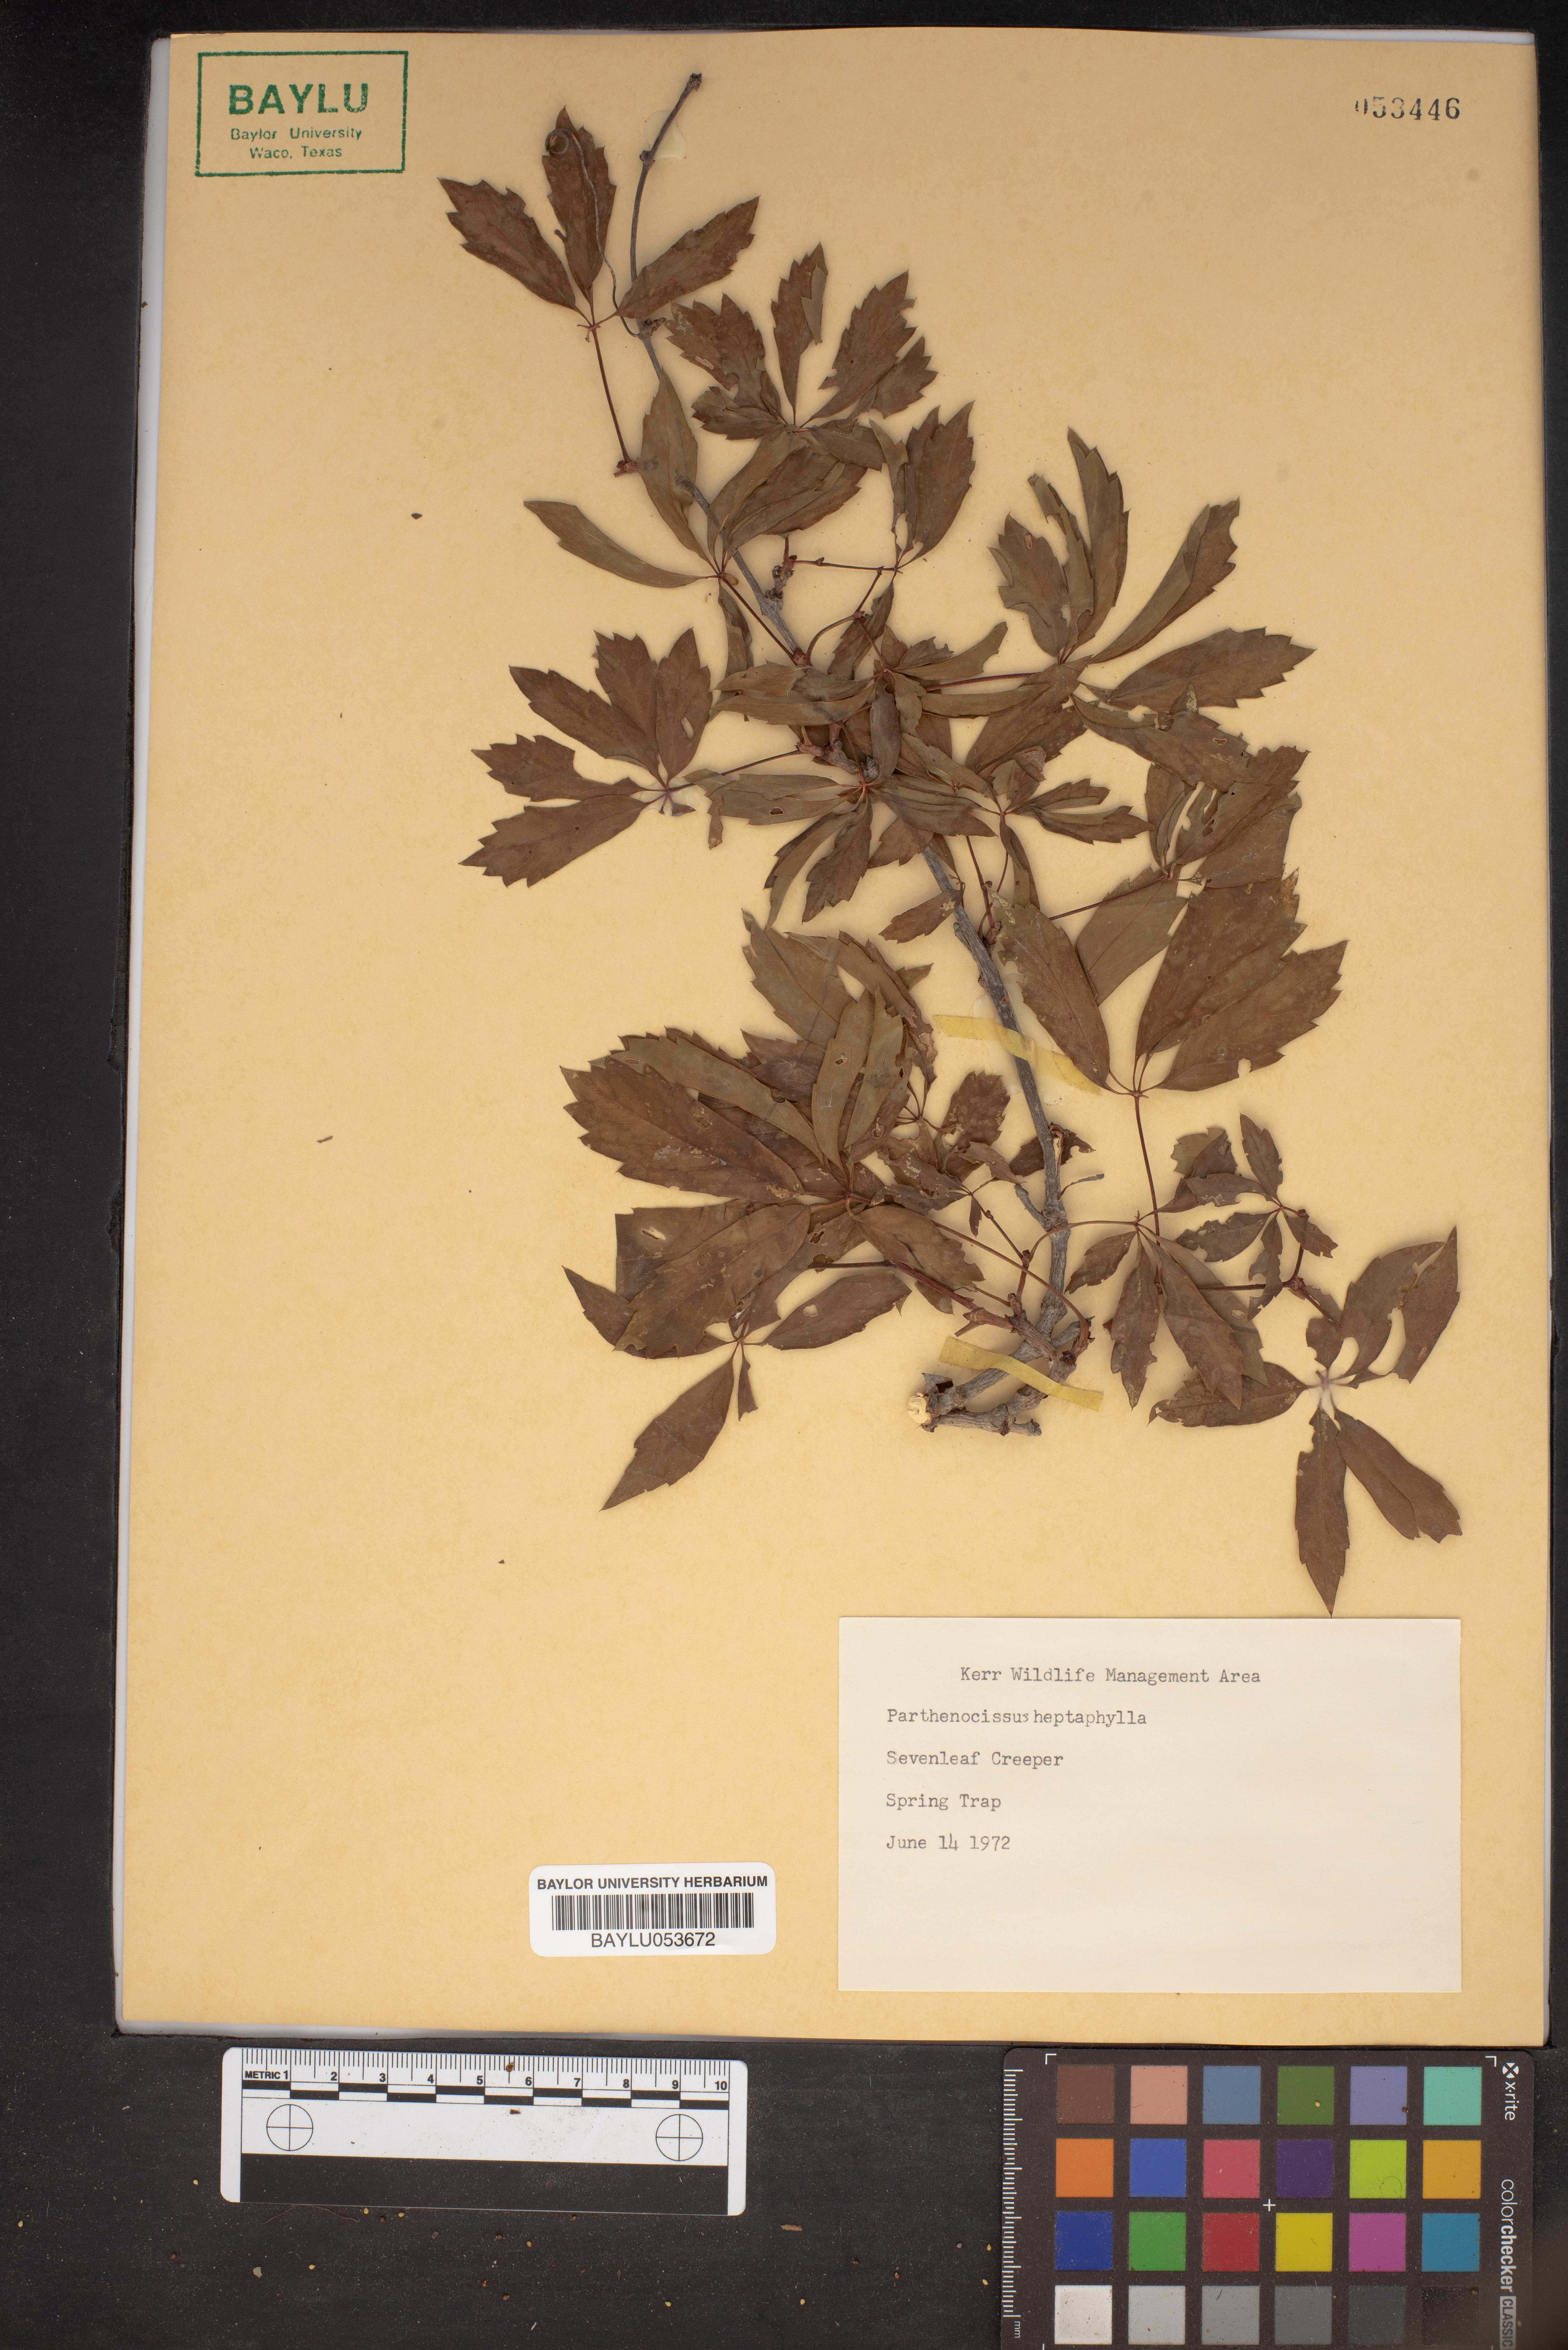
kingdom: Plantae
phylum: Tracheophyta
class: Magnoliopsida
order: Vitales
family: Vitaceae
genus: Parthenocissus
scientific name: Parthenocissus heptaphylla
